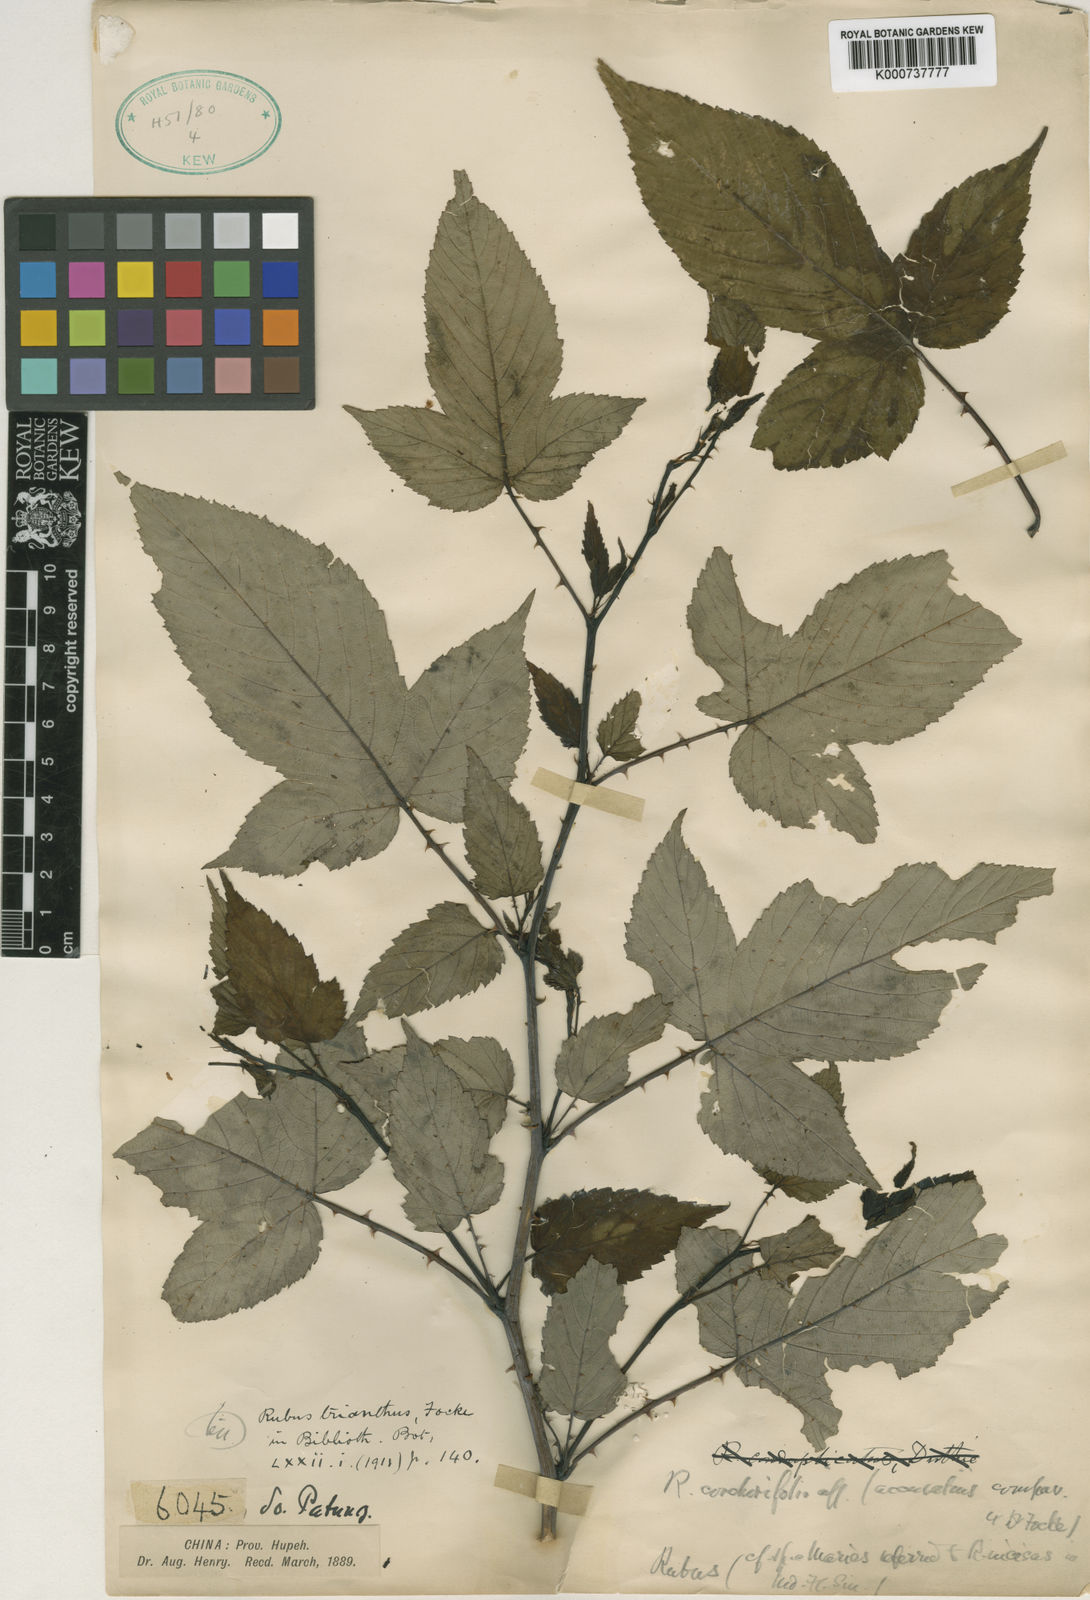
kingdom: Plantae
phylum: Tracheophyta
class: Magnoliopsida
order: Rosales
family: Rosaceae
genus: Rubus
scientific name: Rubus subcrataegifolius
